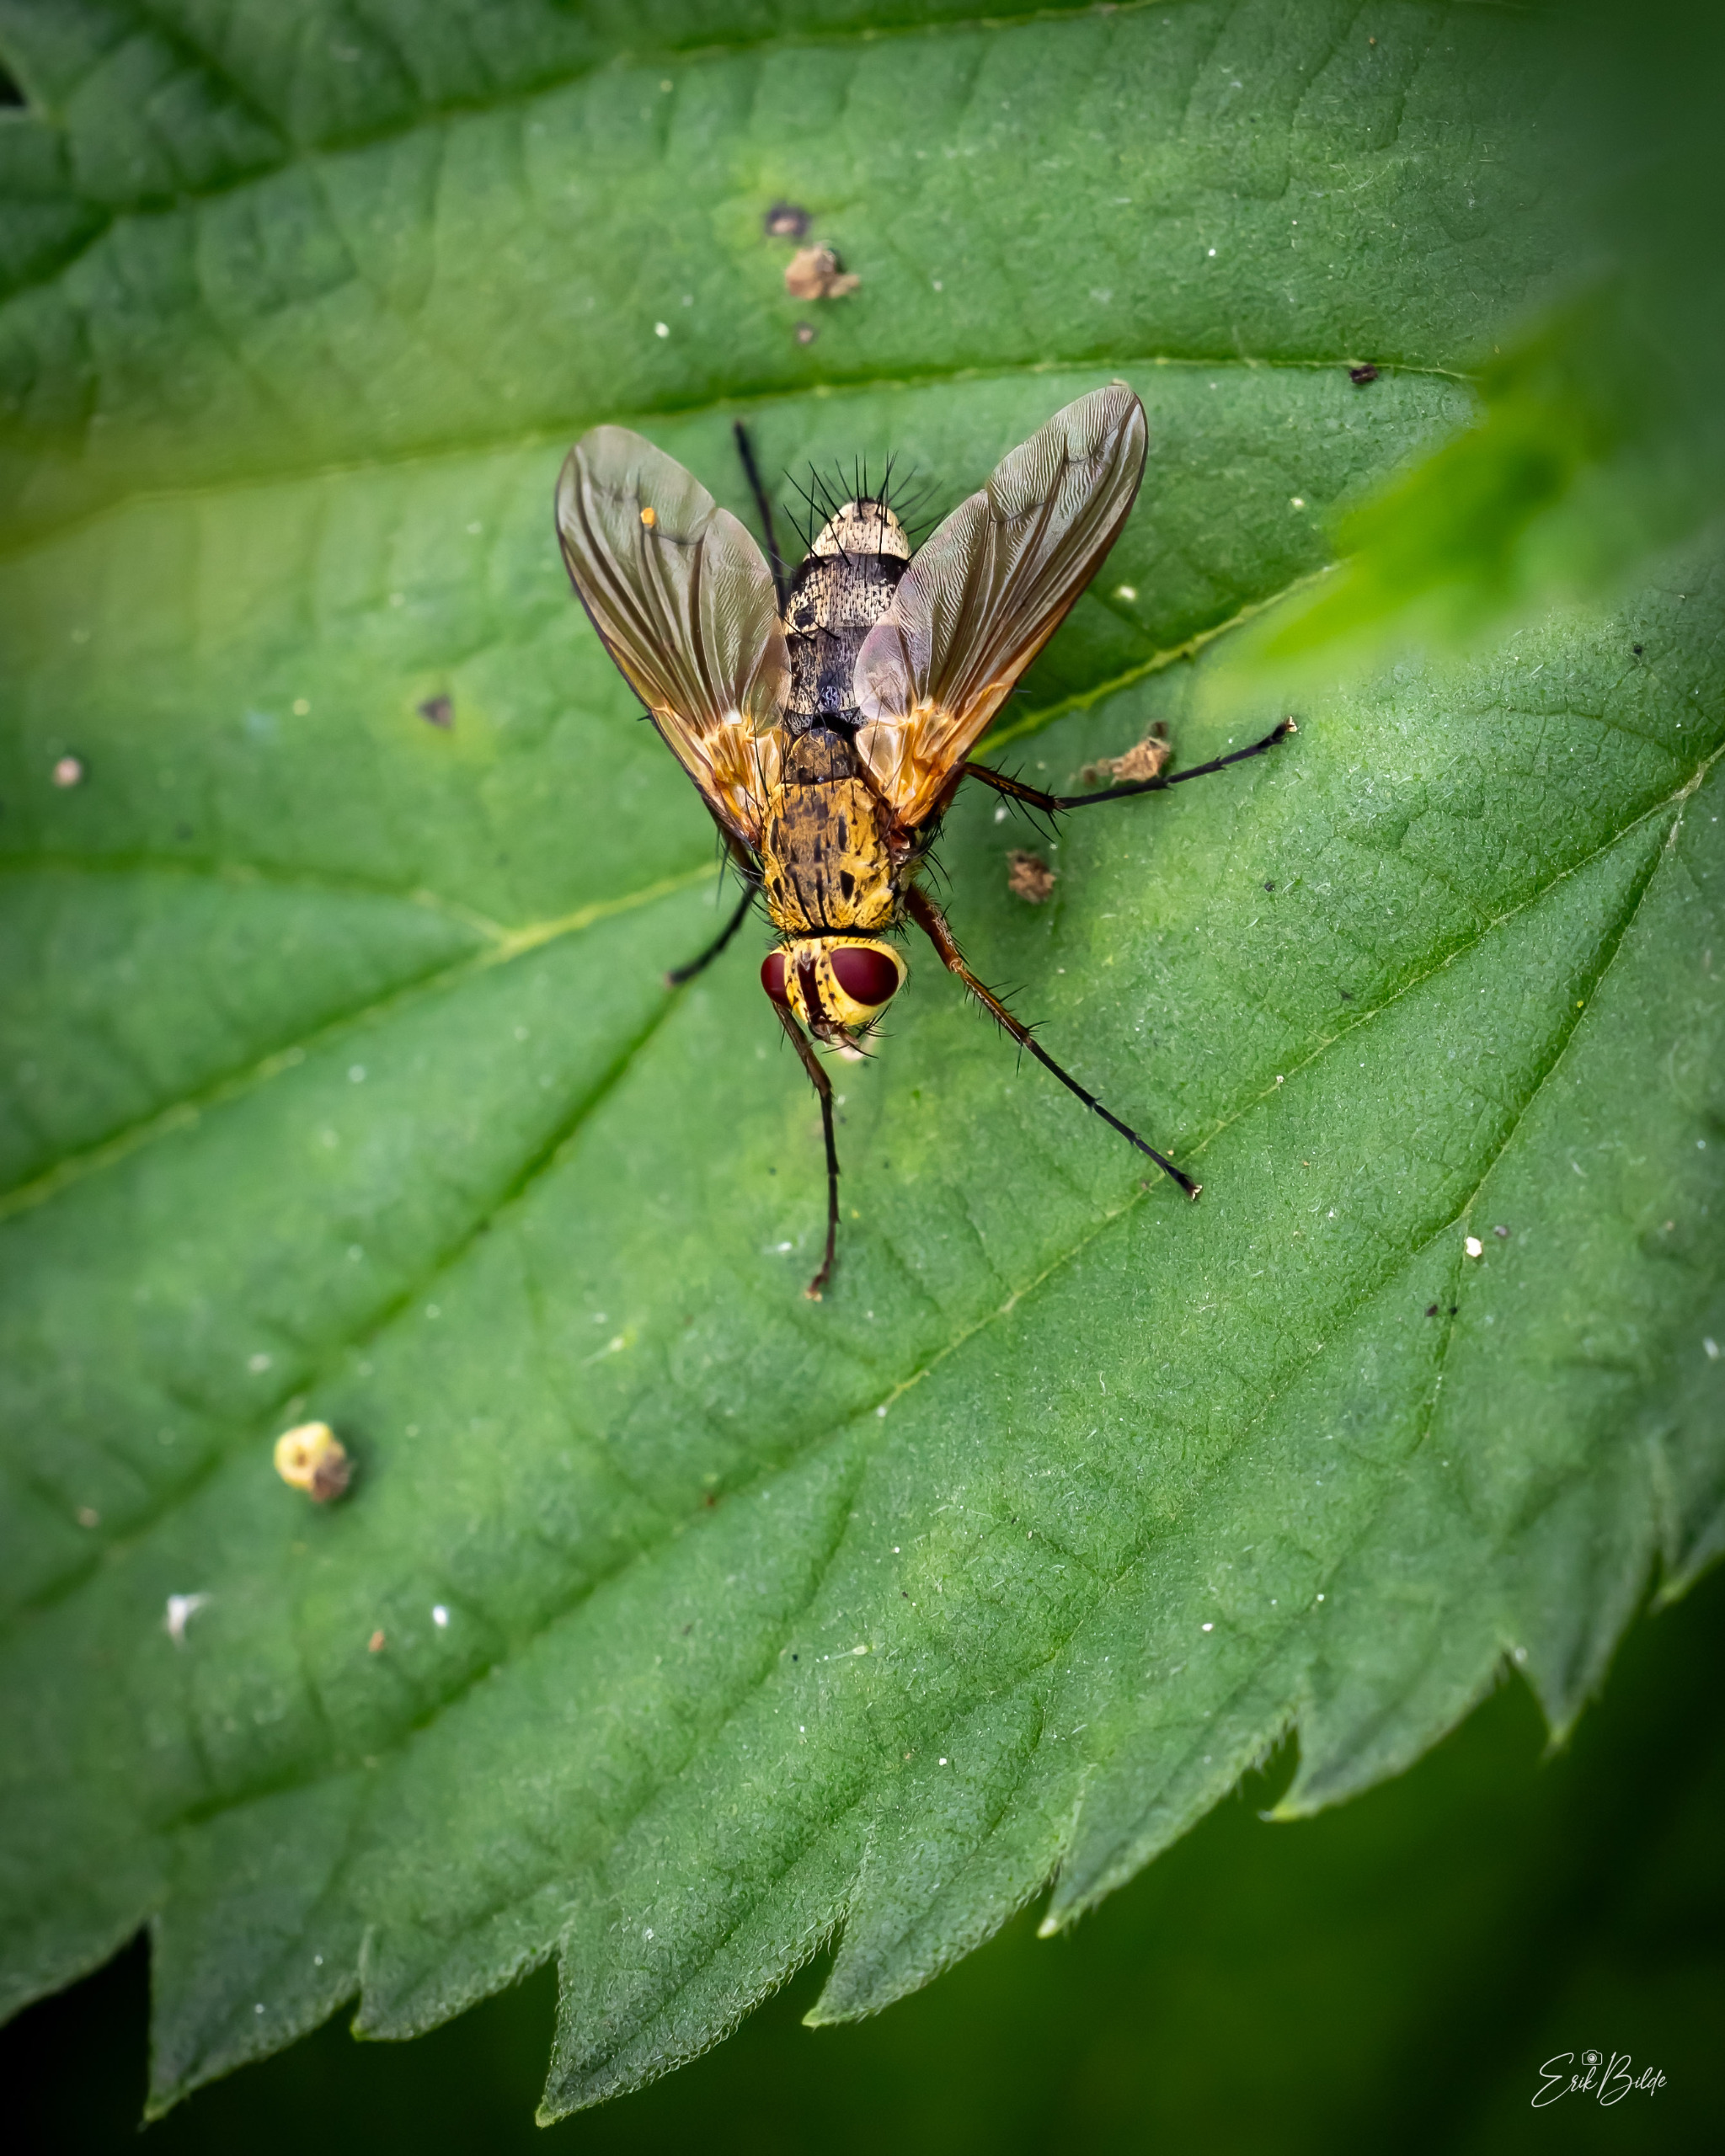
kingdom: Animalia
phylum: Arthropoda
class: Insecta
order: Diptera
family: Tachinidae
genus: Dexiosoma
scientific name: Dexiosoma caninum
